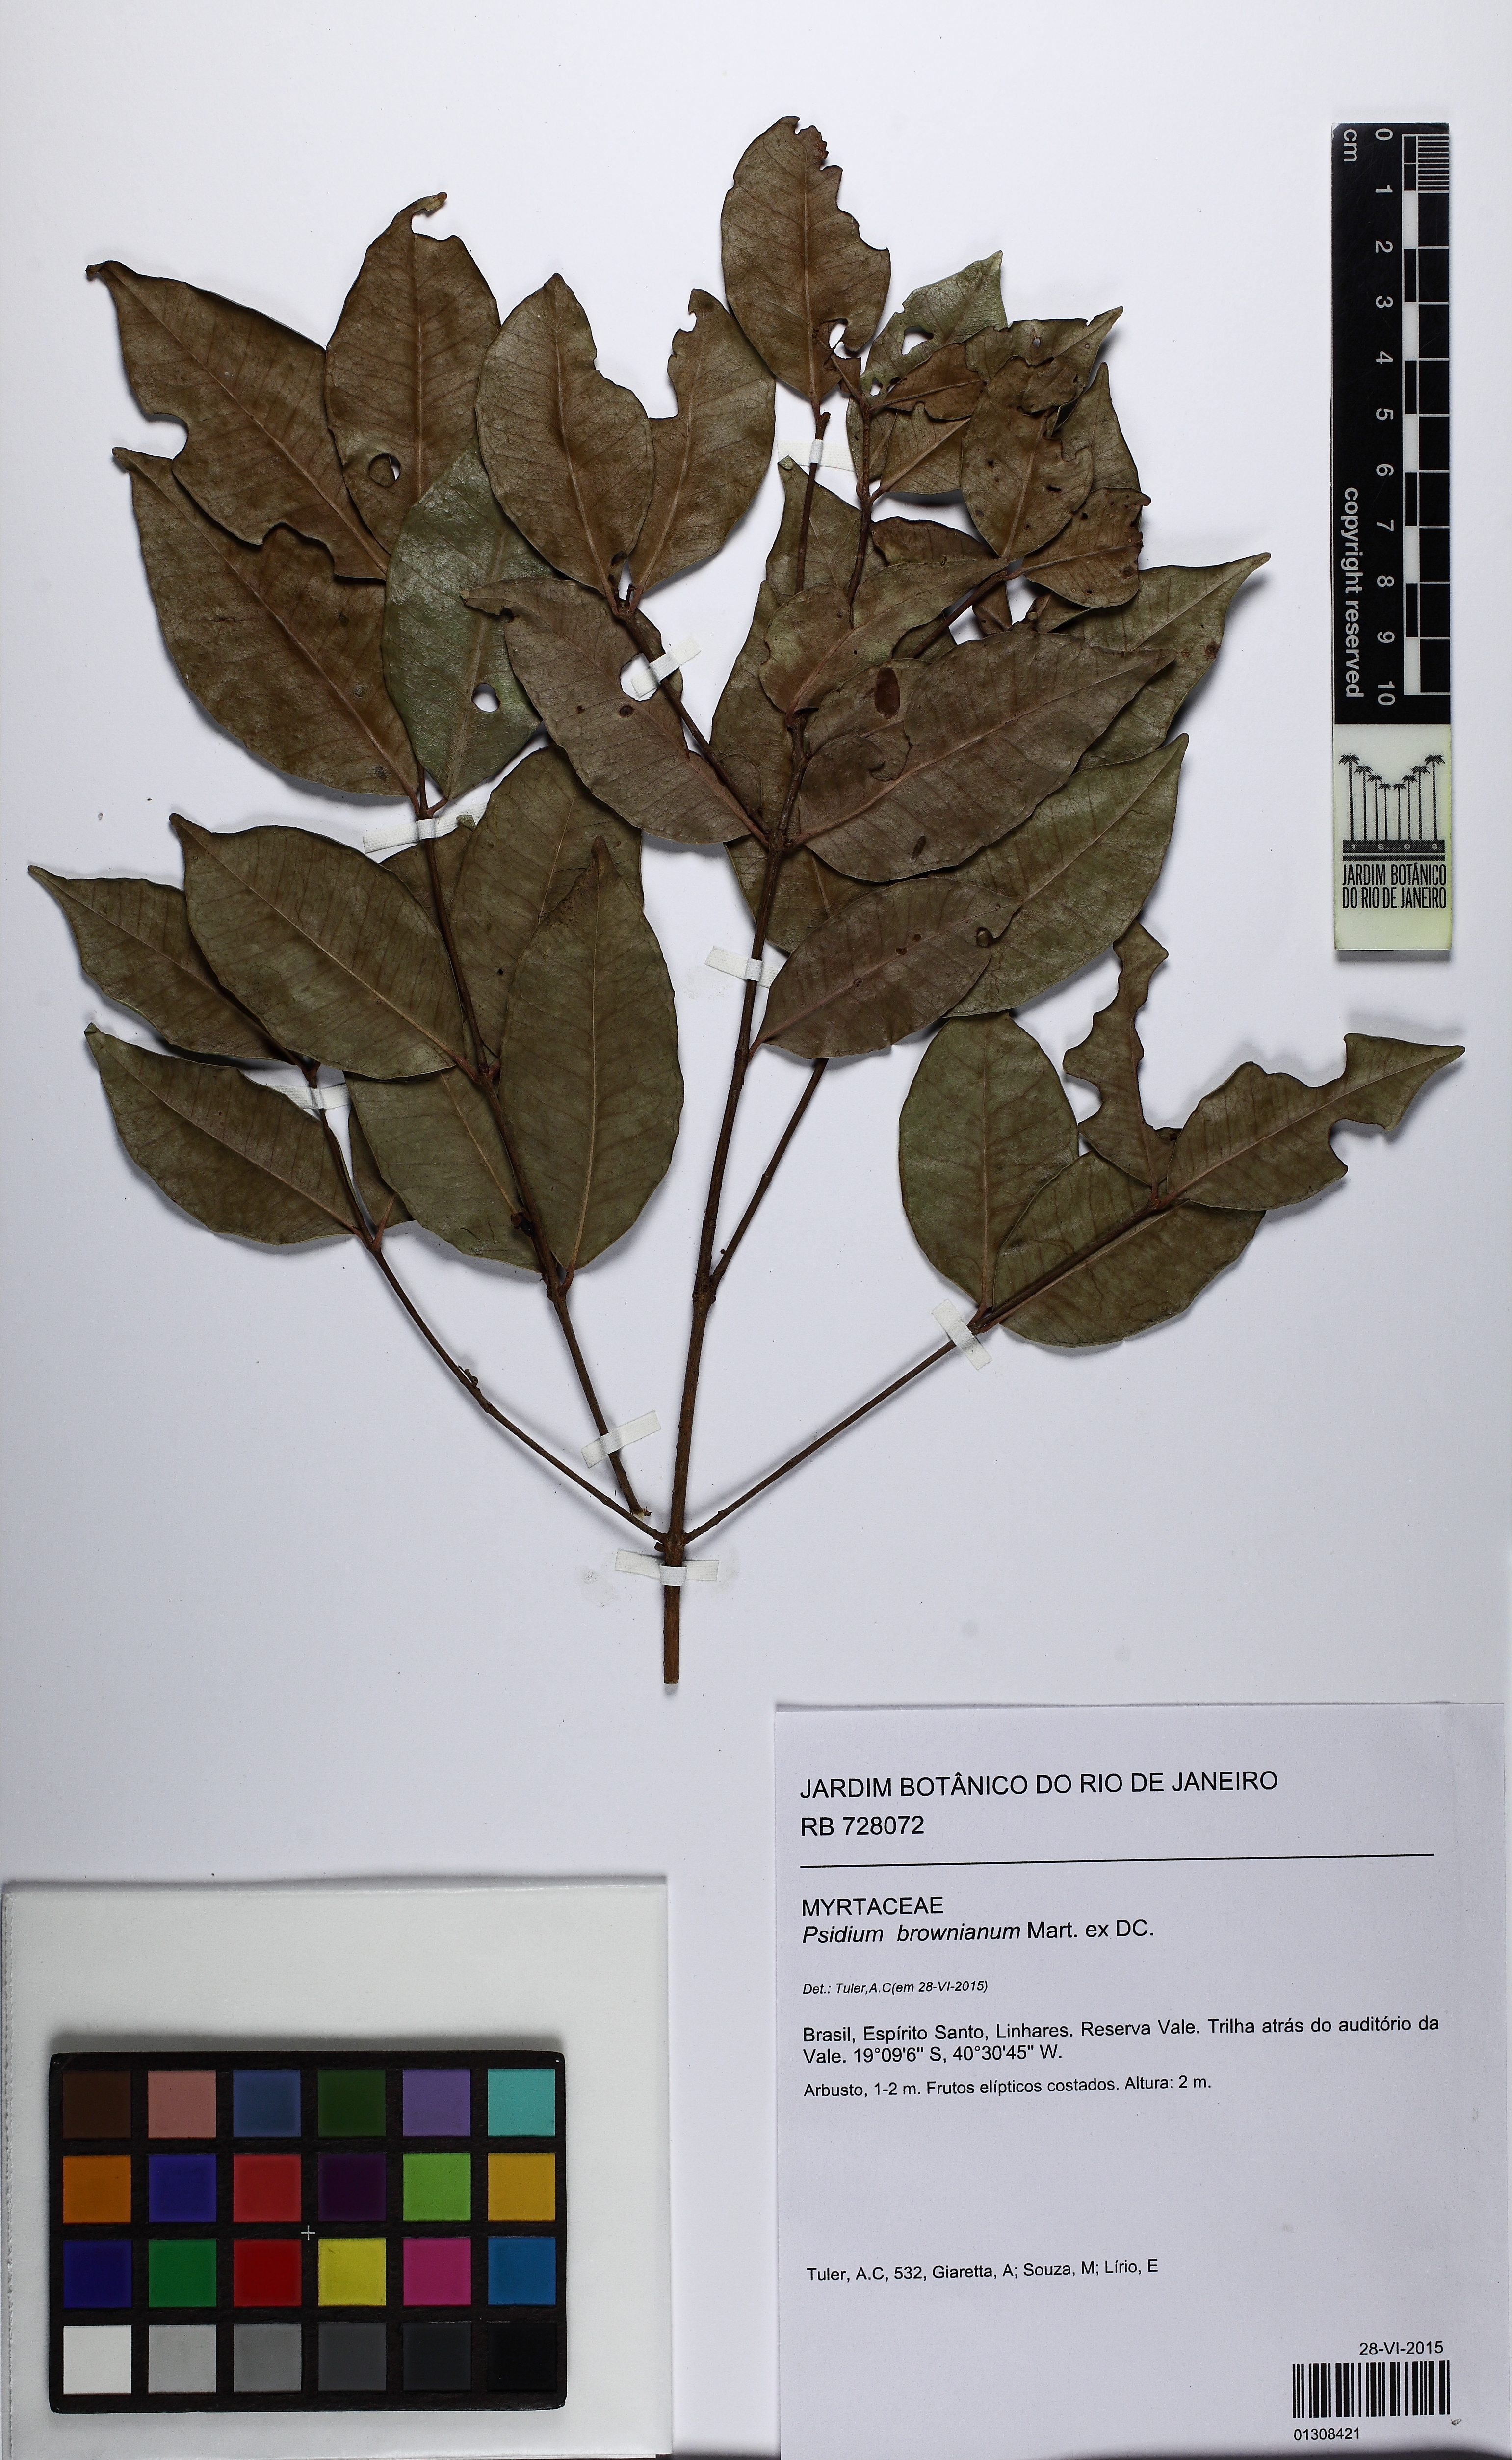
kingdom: Plantae
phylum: Tracheophyta
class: Magnoliopsida
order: Myrtales
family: Myrtaceae
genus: Psidium
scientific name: Psidium brownianum
